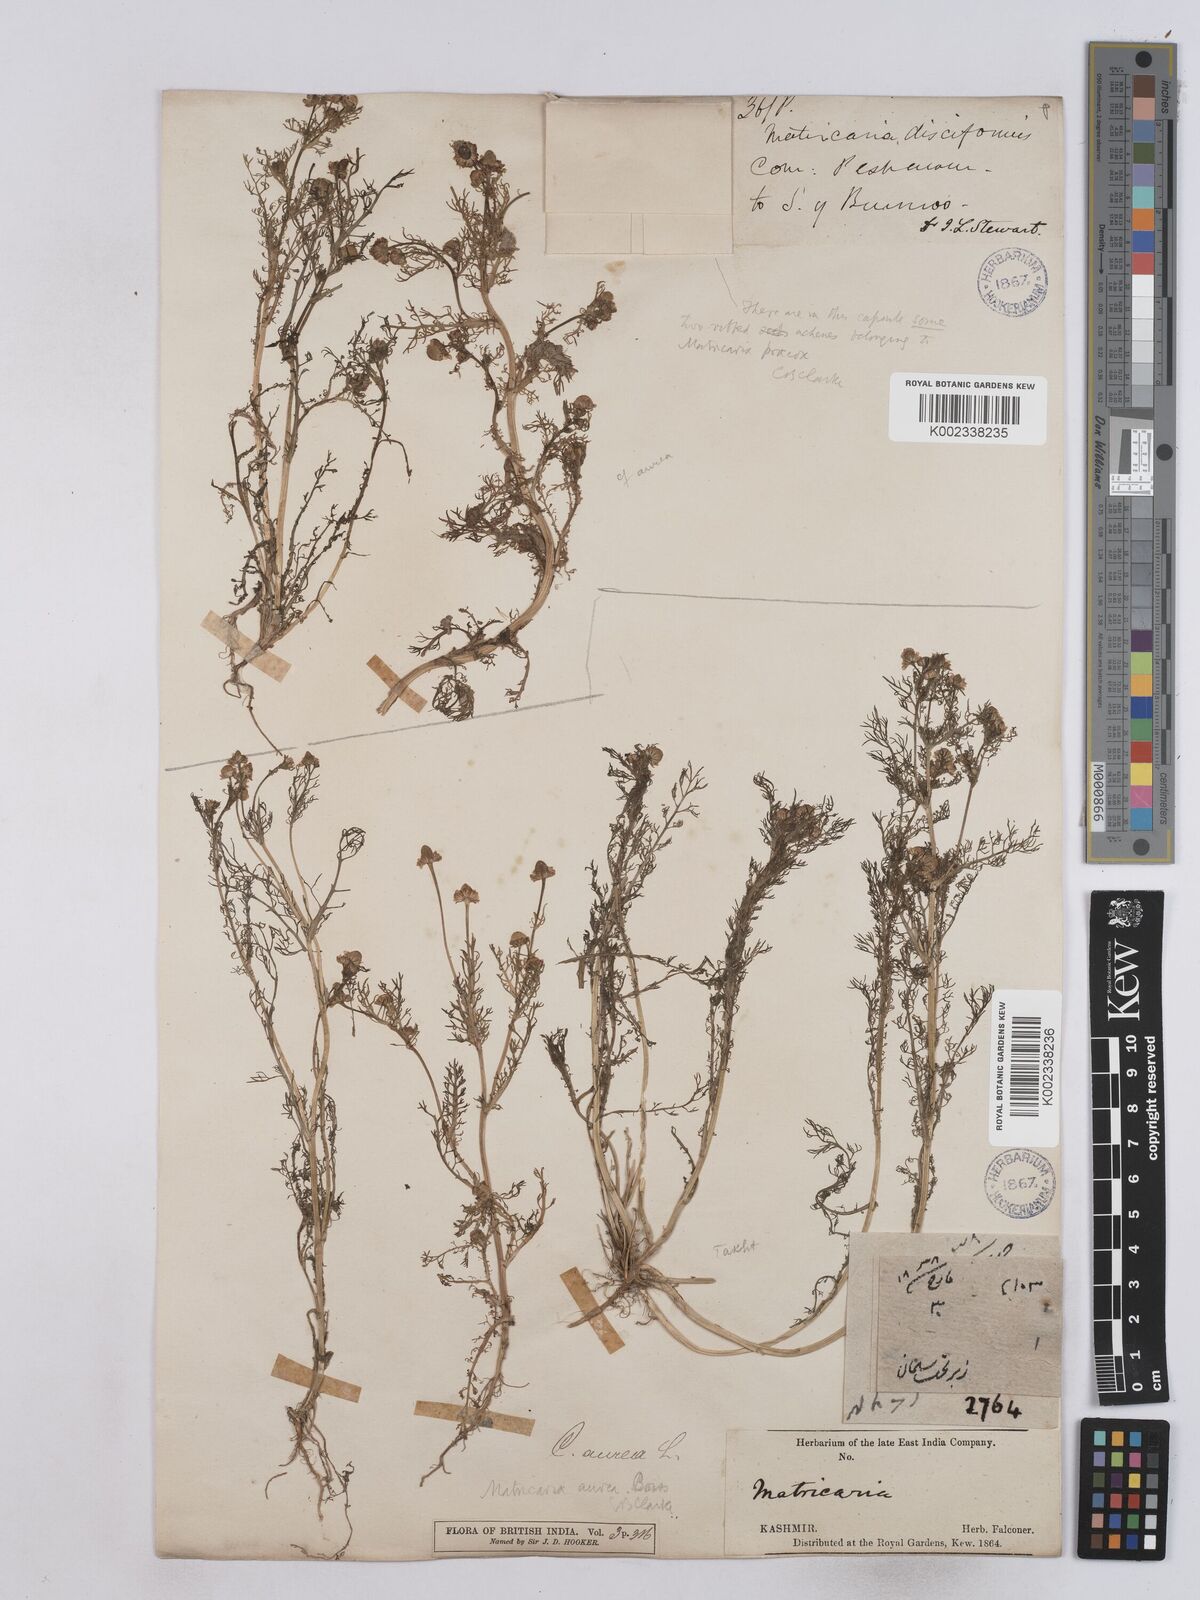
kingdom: Plantae
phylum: Tracheophyta
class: Magnoliopsida
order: Asterales
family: Asteraceae
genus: Matricaria
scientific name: Matricaria aurea
